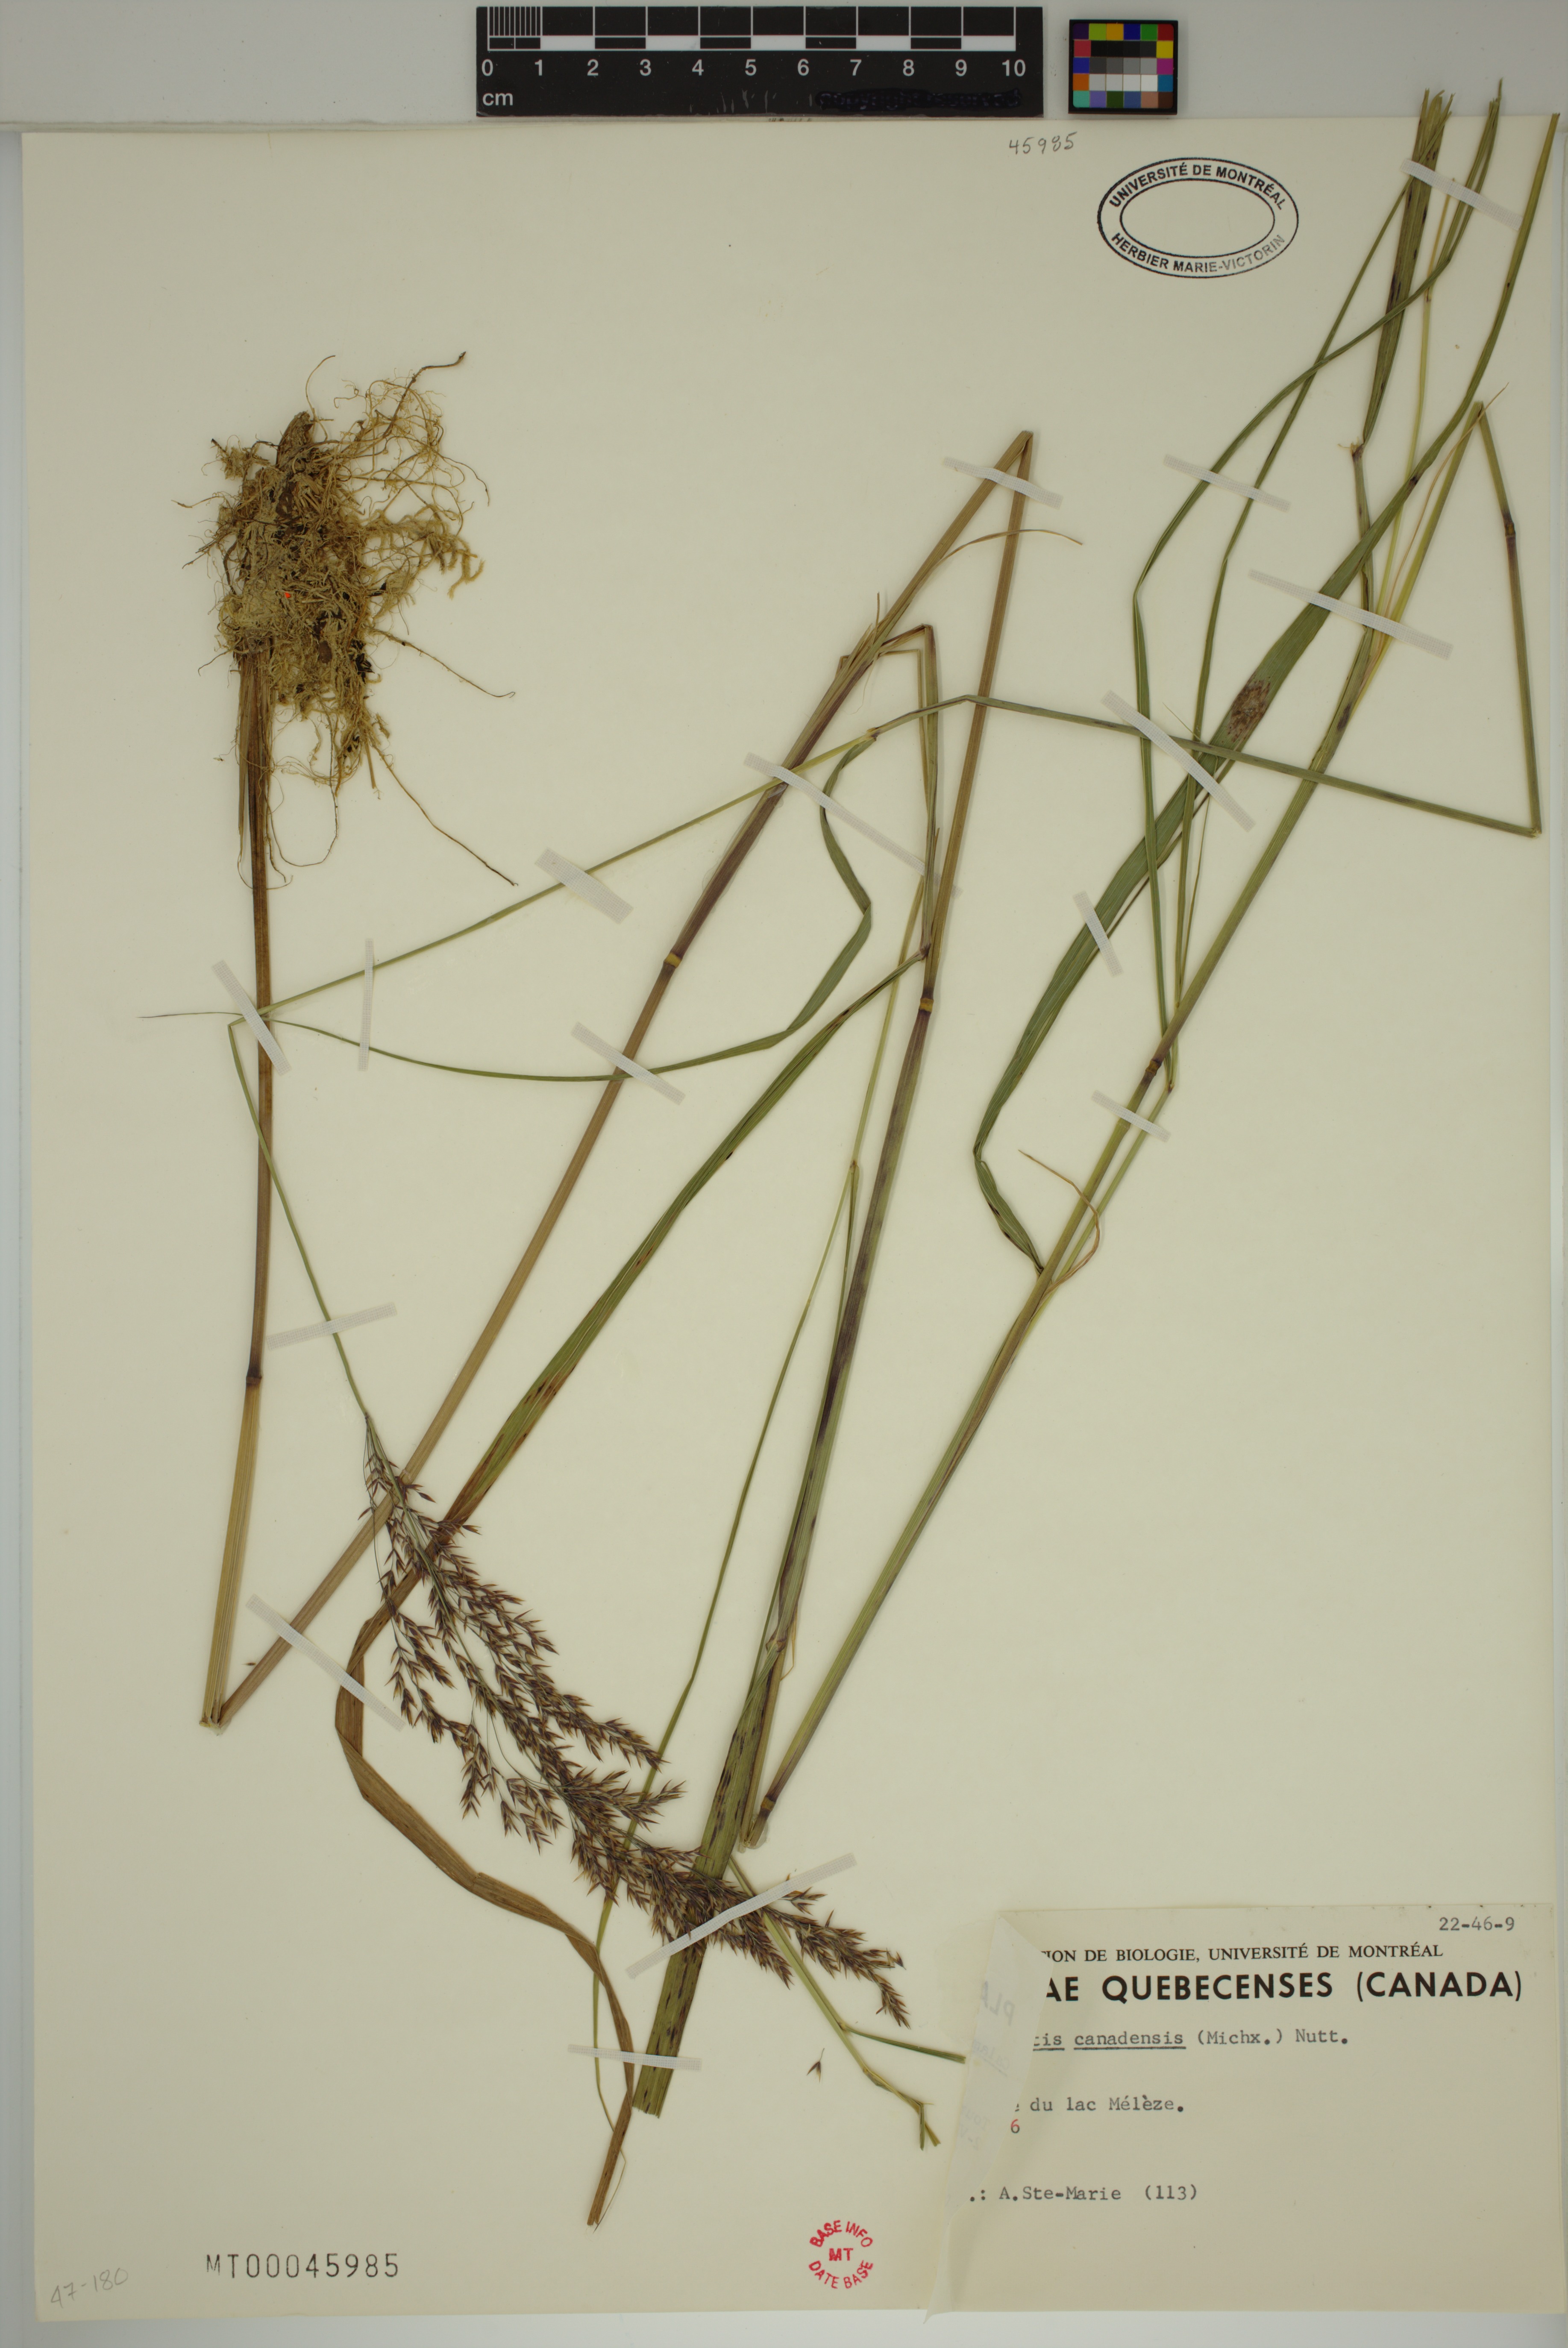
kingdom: Plantae
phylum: Tracheophyta
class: Liliopsida
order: Poales
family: Poaceae
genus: Calamagrostis
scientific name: Calamagrostis canadensis
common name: Canada bluejoint
